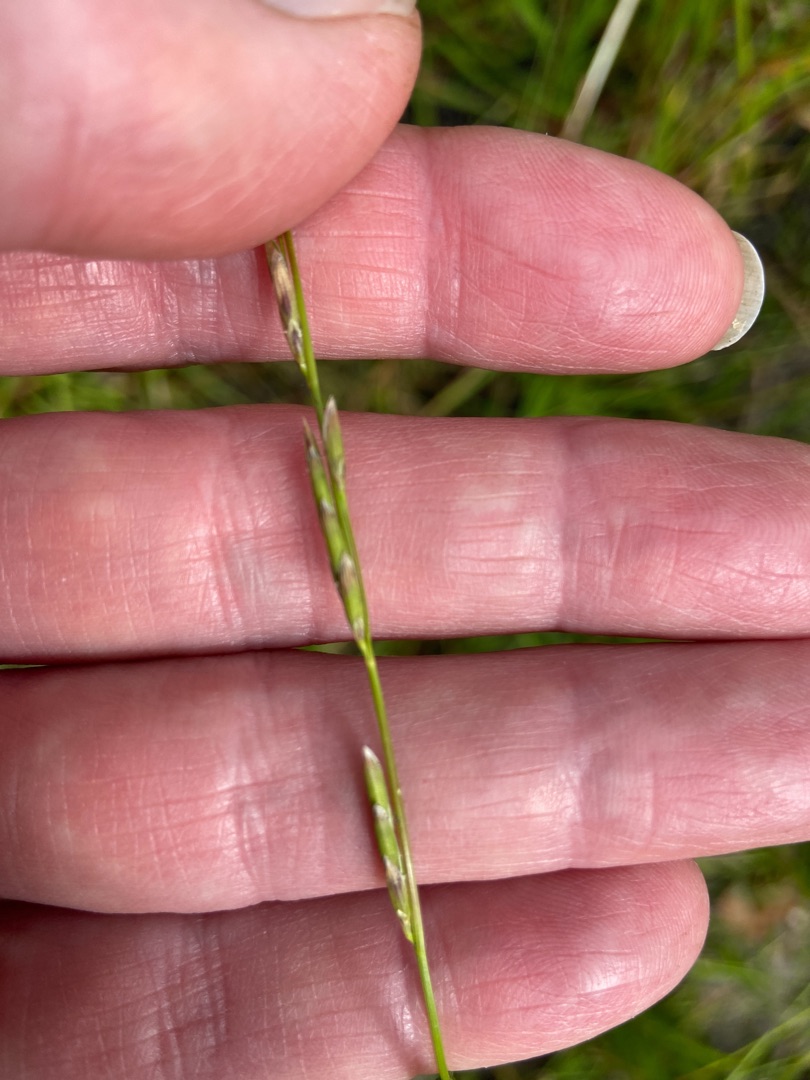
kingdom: Plantae
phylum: Tracheophyta
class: Liliopsida
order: Poales
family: Poaceae
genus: Glyceria
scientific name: Glyceria fluitans
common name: Manna-sødgræs
